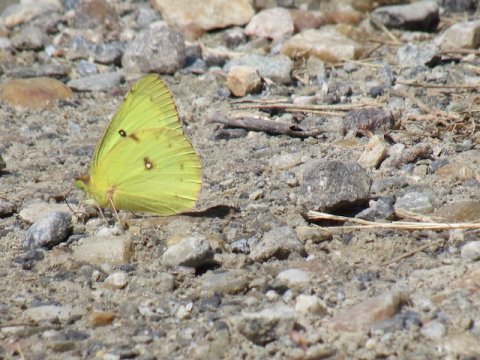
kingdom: Animalia
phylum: Arthropoda
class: Insecta
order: Lepidoptera
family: Pieridae
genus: Colias
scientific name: Colias philodice
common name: Clouded Sulphur
